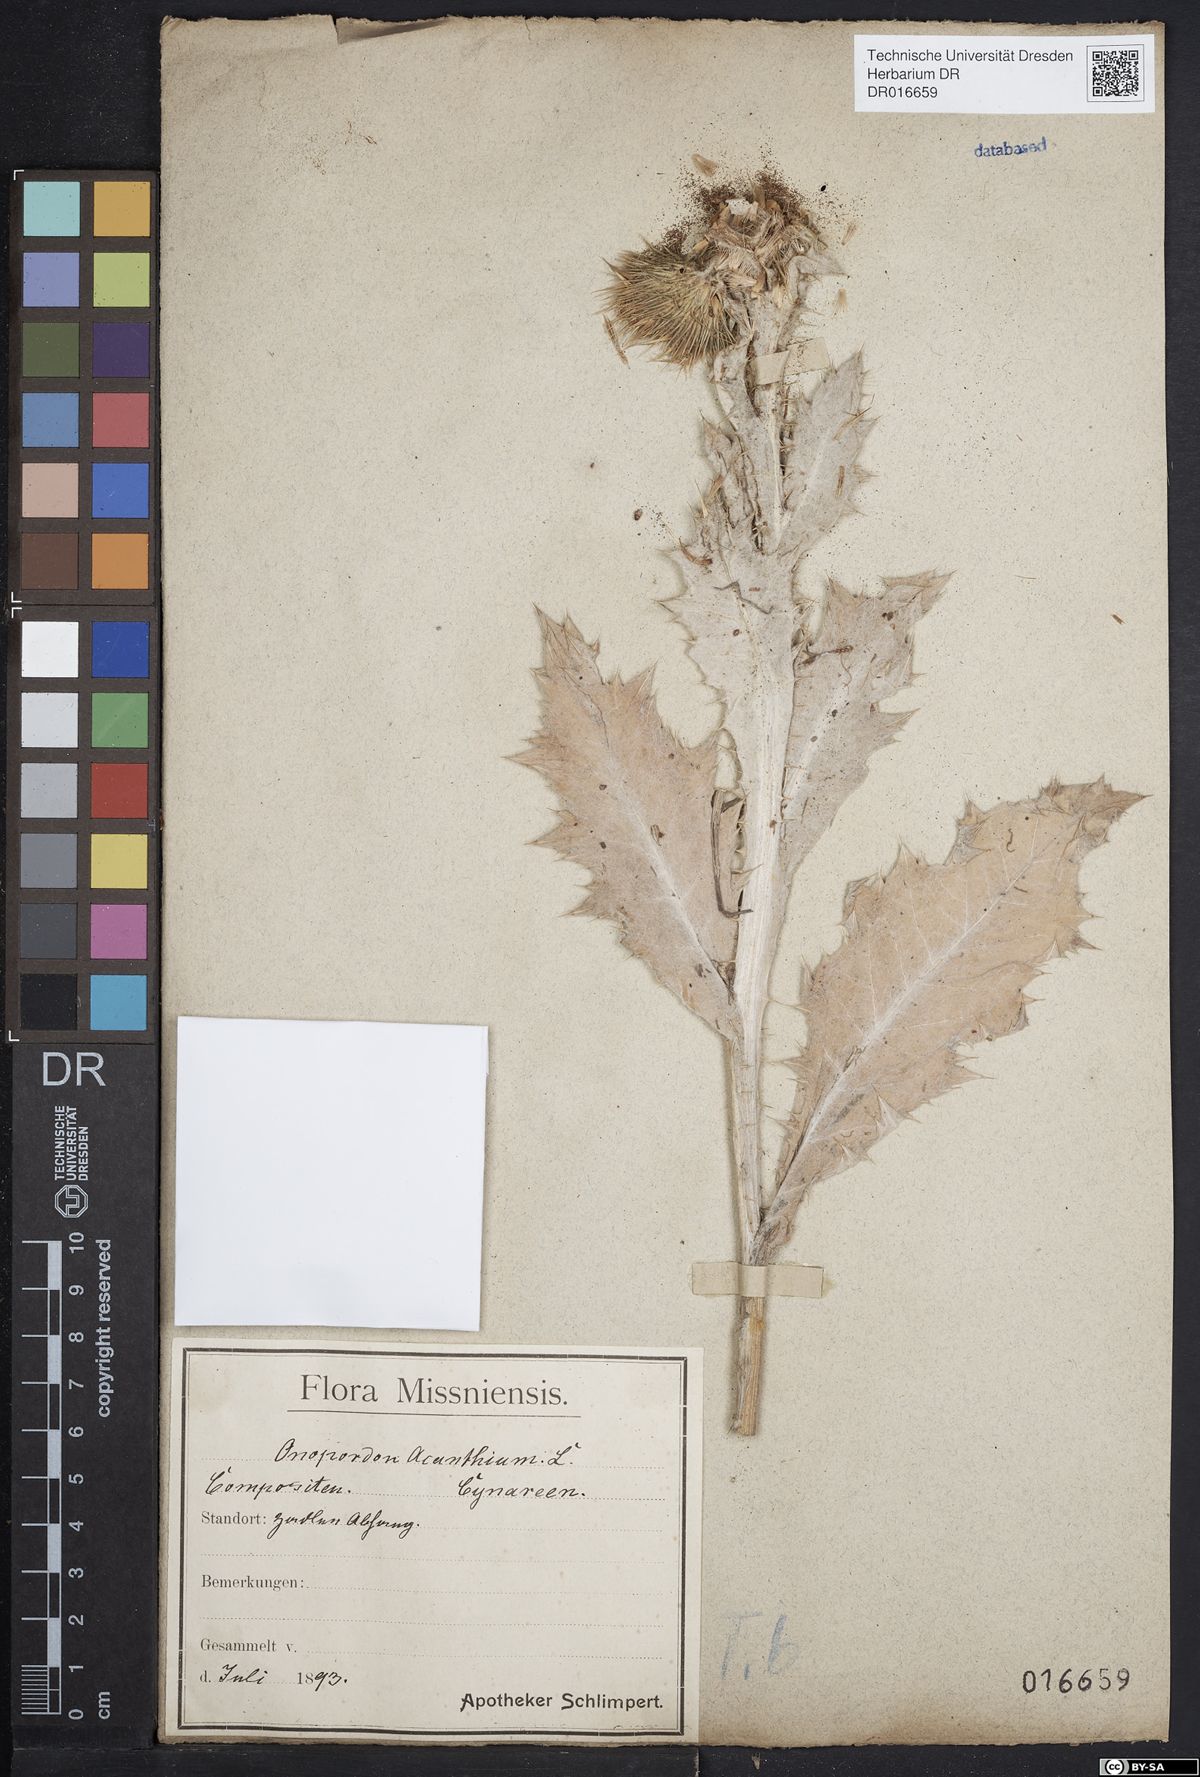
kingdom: Plantae
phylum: Tracheophyta
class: Magnoliopsida
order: Asterales
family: Asteraceae
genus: Onopordum
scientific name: Onopordum acanthium
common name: Scotch thistle
